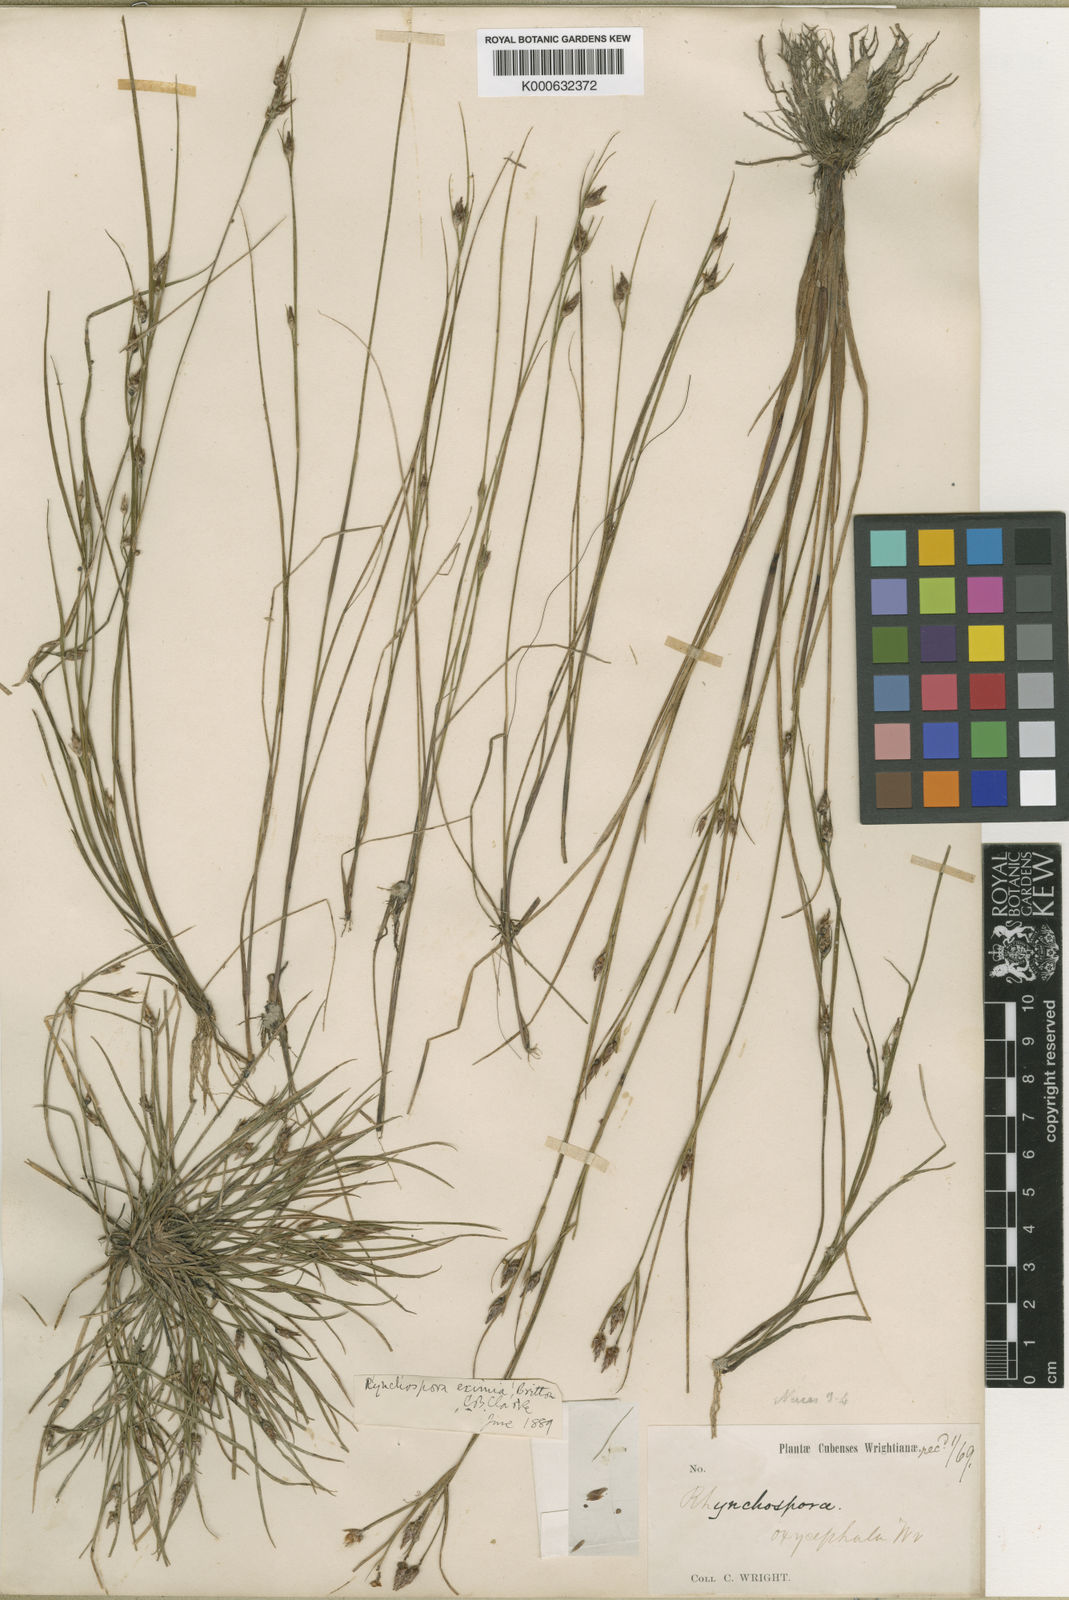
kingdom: Plantae
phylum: Tracheophyta
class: Liliopsida
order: Poales
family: Cyperaceae
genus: Rhynchospora
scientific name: Rhynchospora
